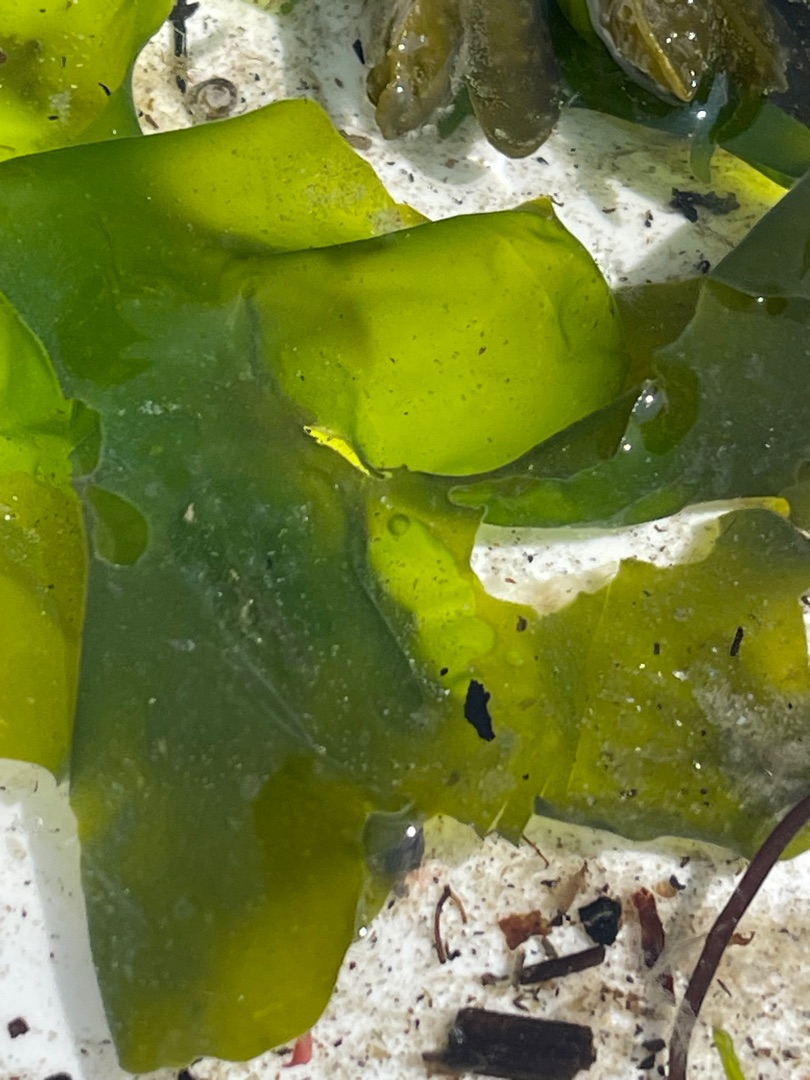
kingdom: Plantae
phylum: Chlorophyta
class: Ulvophyceae
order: Ulvales
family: Ulvaceae
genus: Ulva
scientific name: Ulva fenestrata
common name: Søsalat
